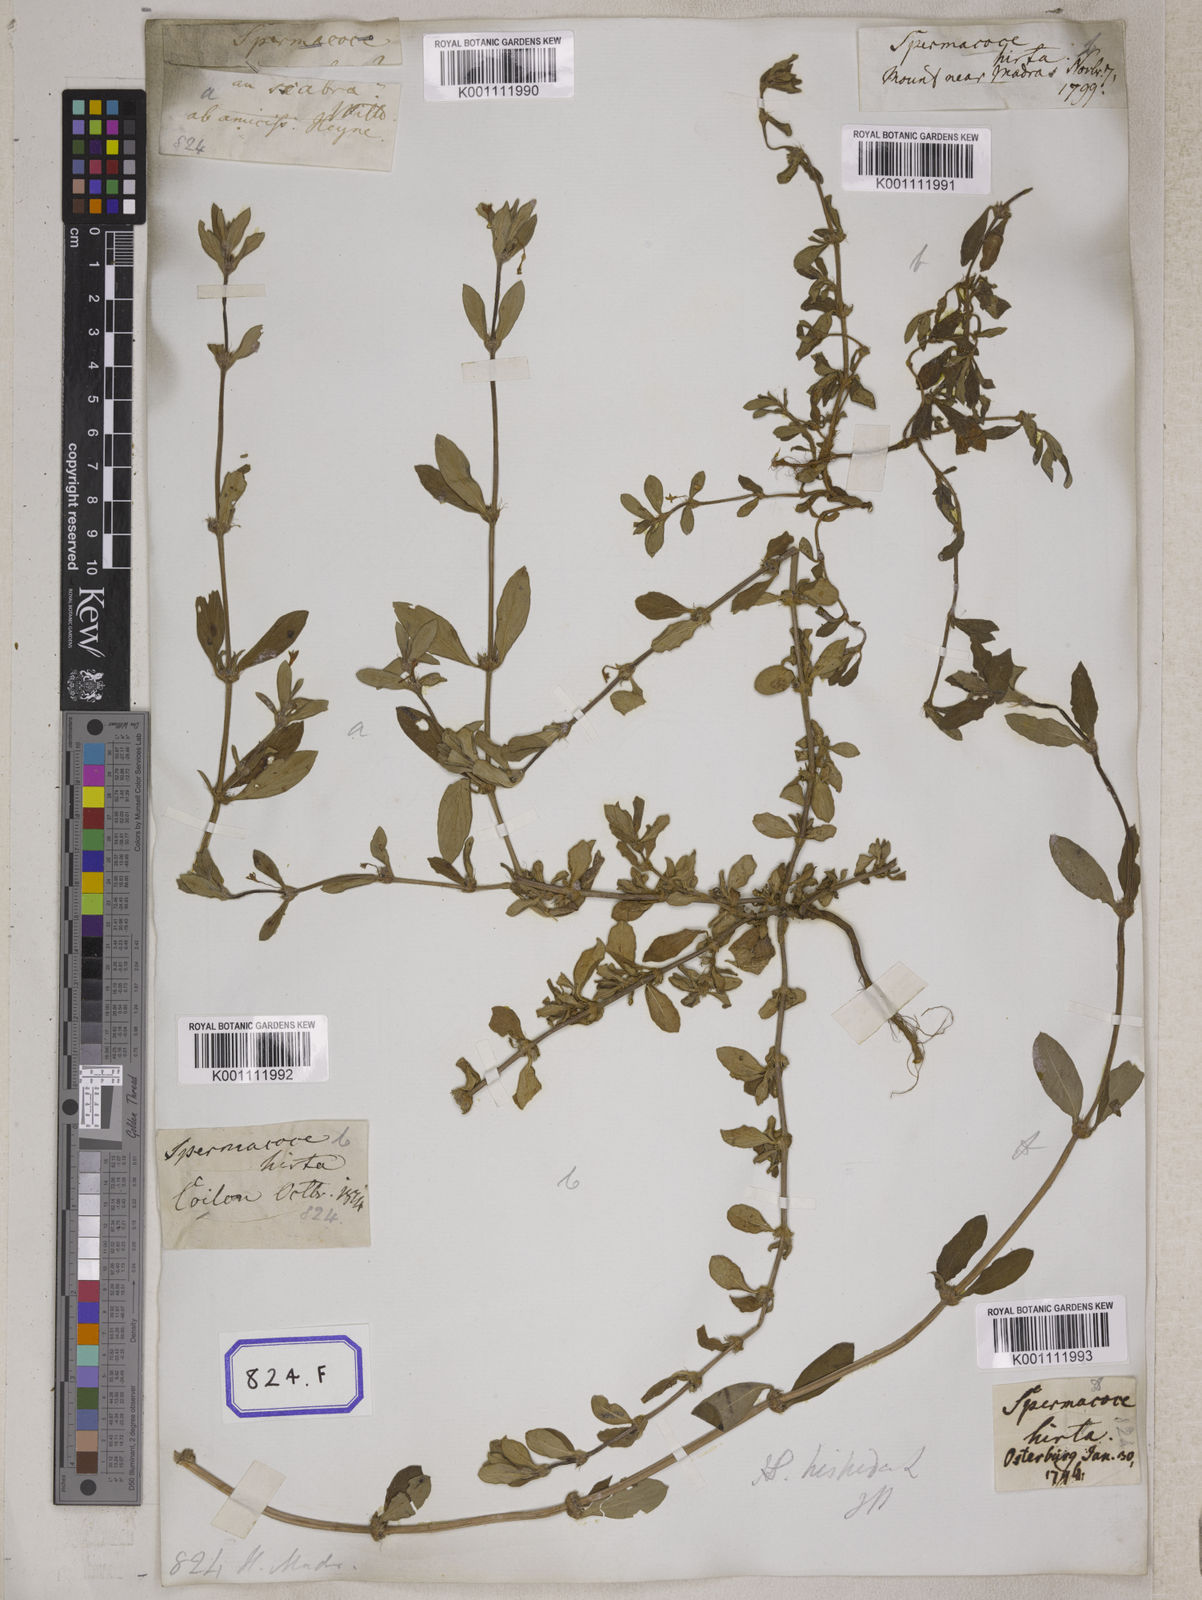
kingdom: Plantae
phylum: Tracheophyta
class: Magnoliopsida
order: Gentianales
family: Rubiaceae
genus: Spermacoce
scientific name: Spermacoce
